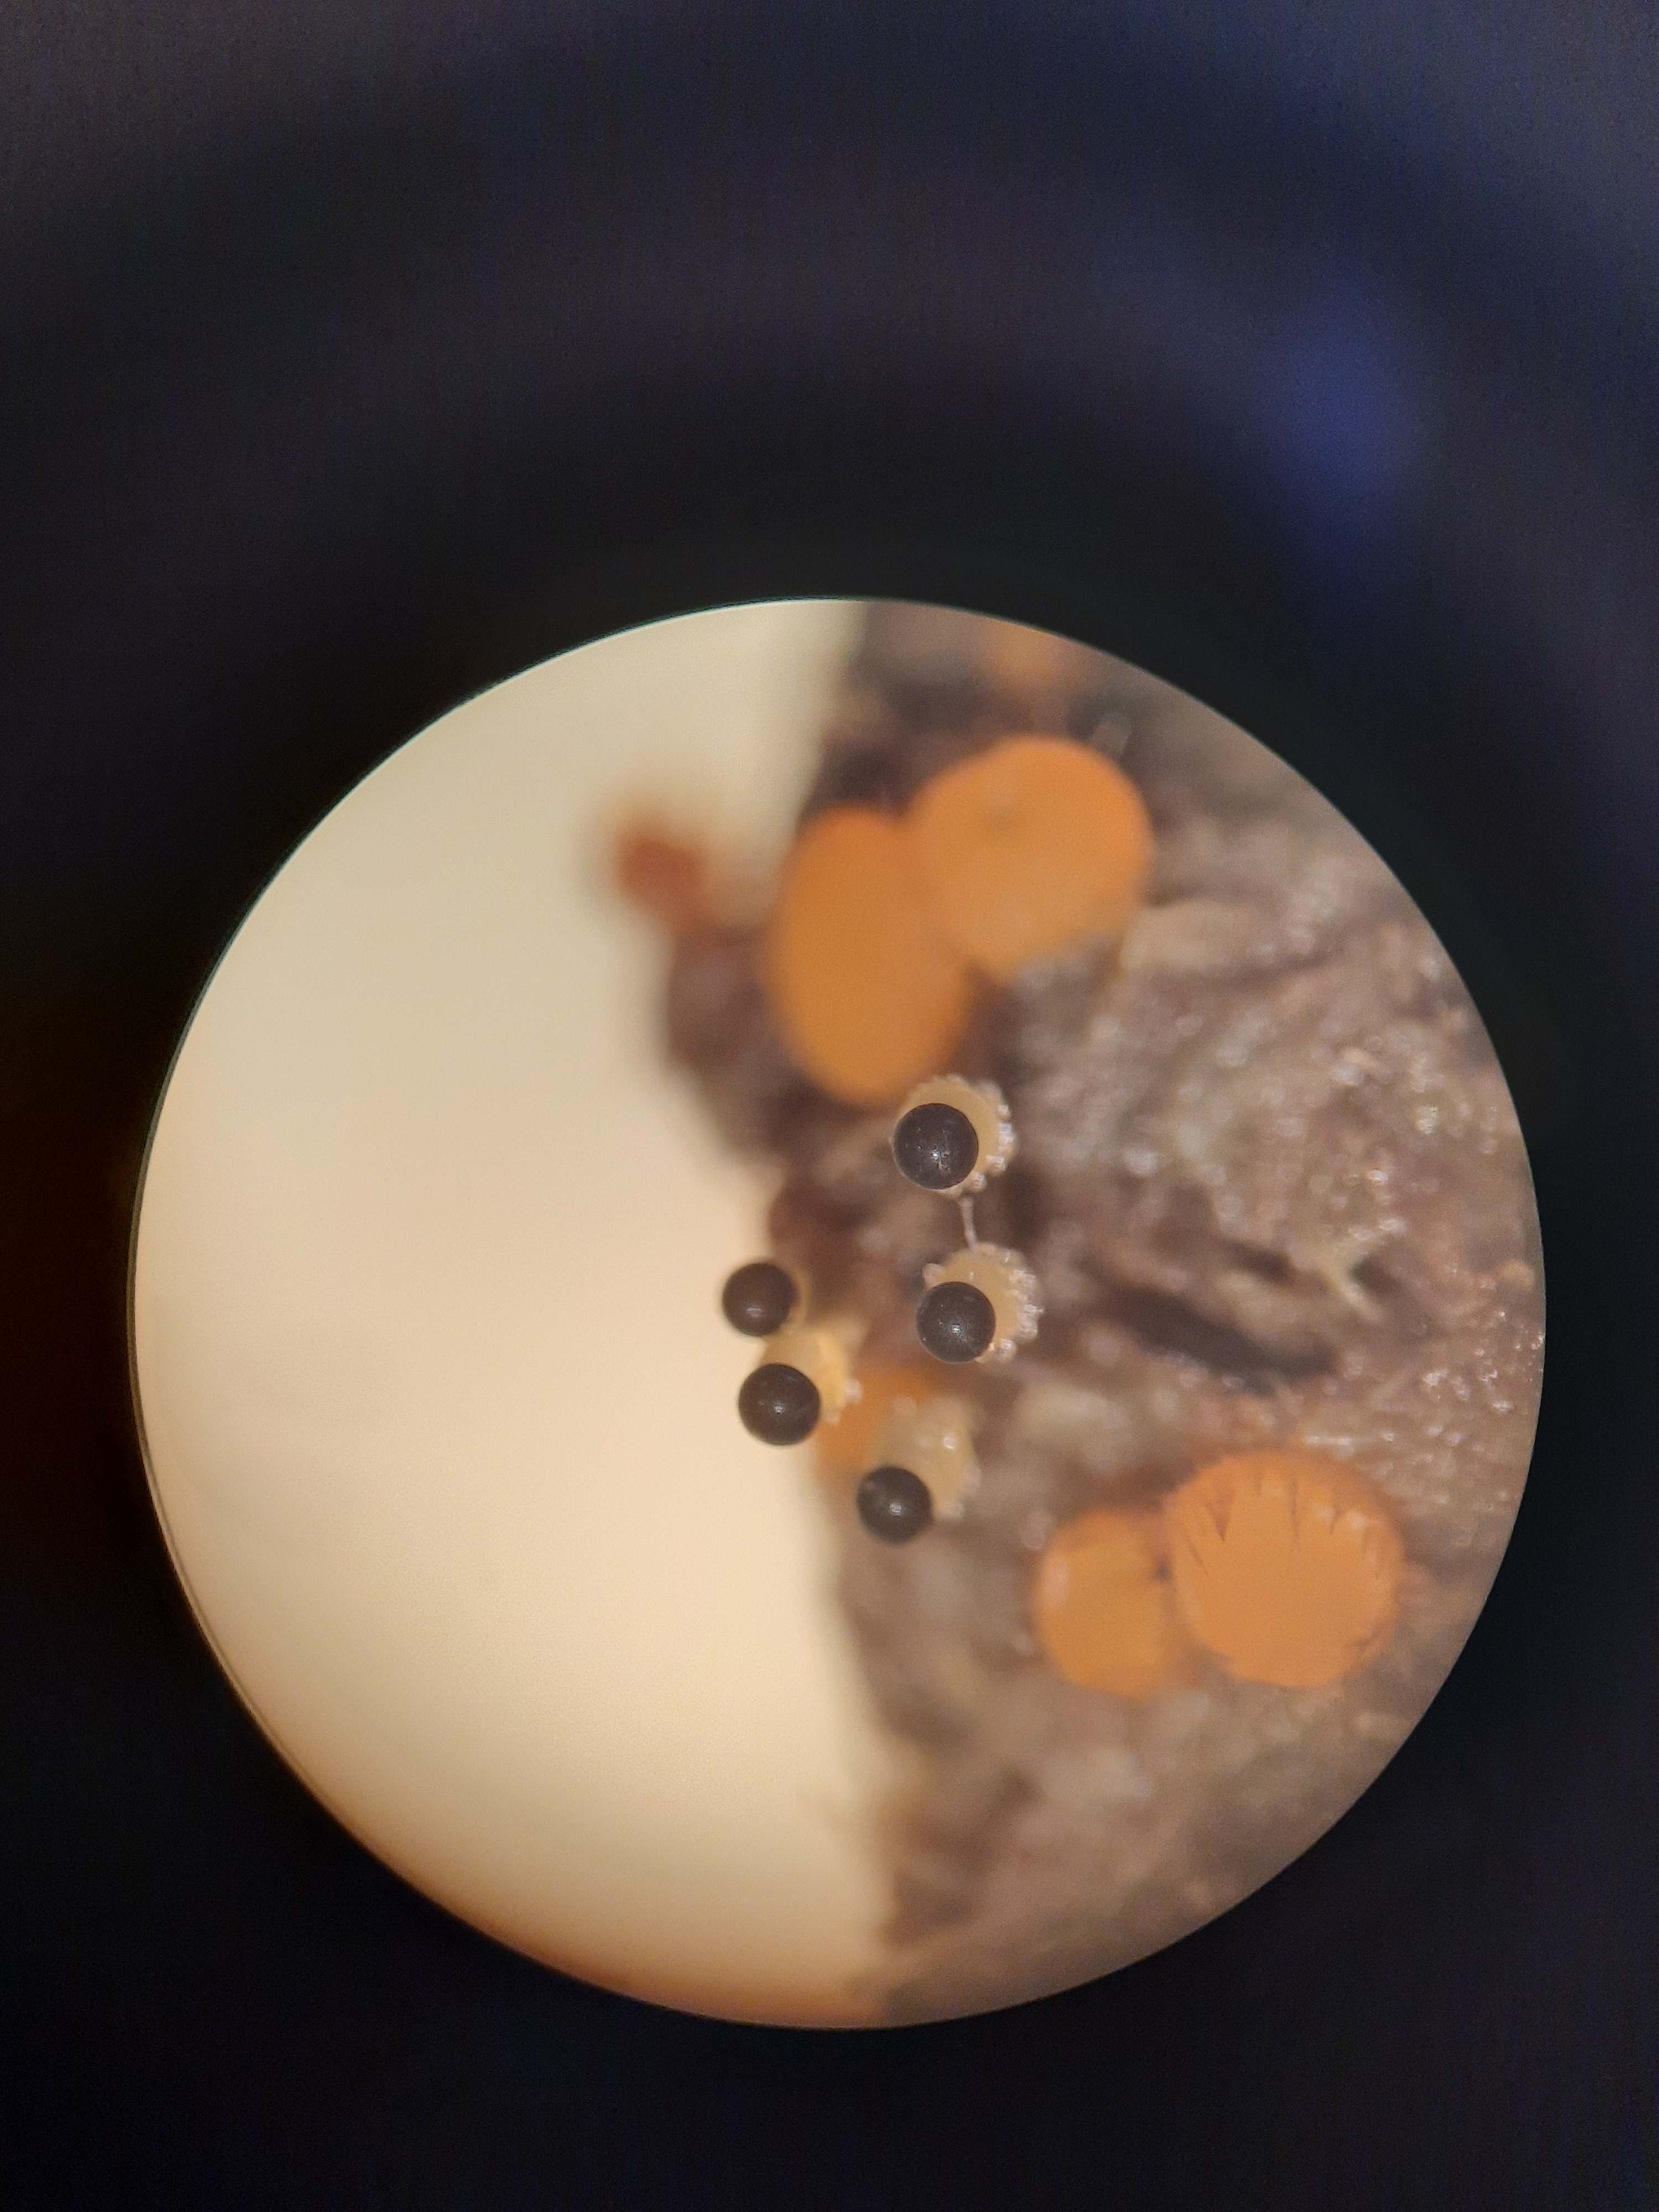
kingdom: Fungi
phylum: Mucoromycota
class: Mucoromycetes
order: Mucorales
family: Pilobolaceae
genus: Pilobolus
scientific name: Pilobolus
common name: boldkaster
